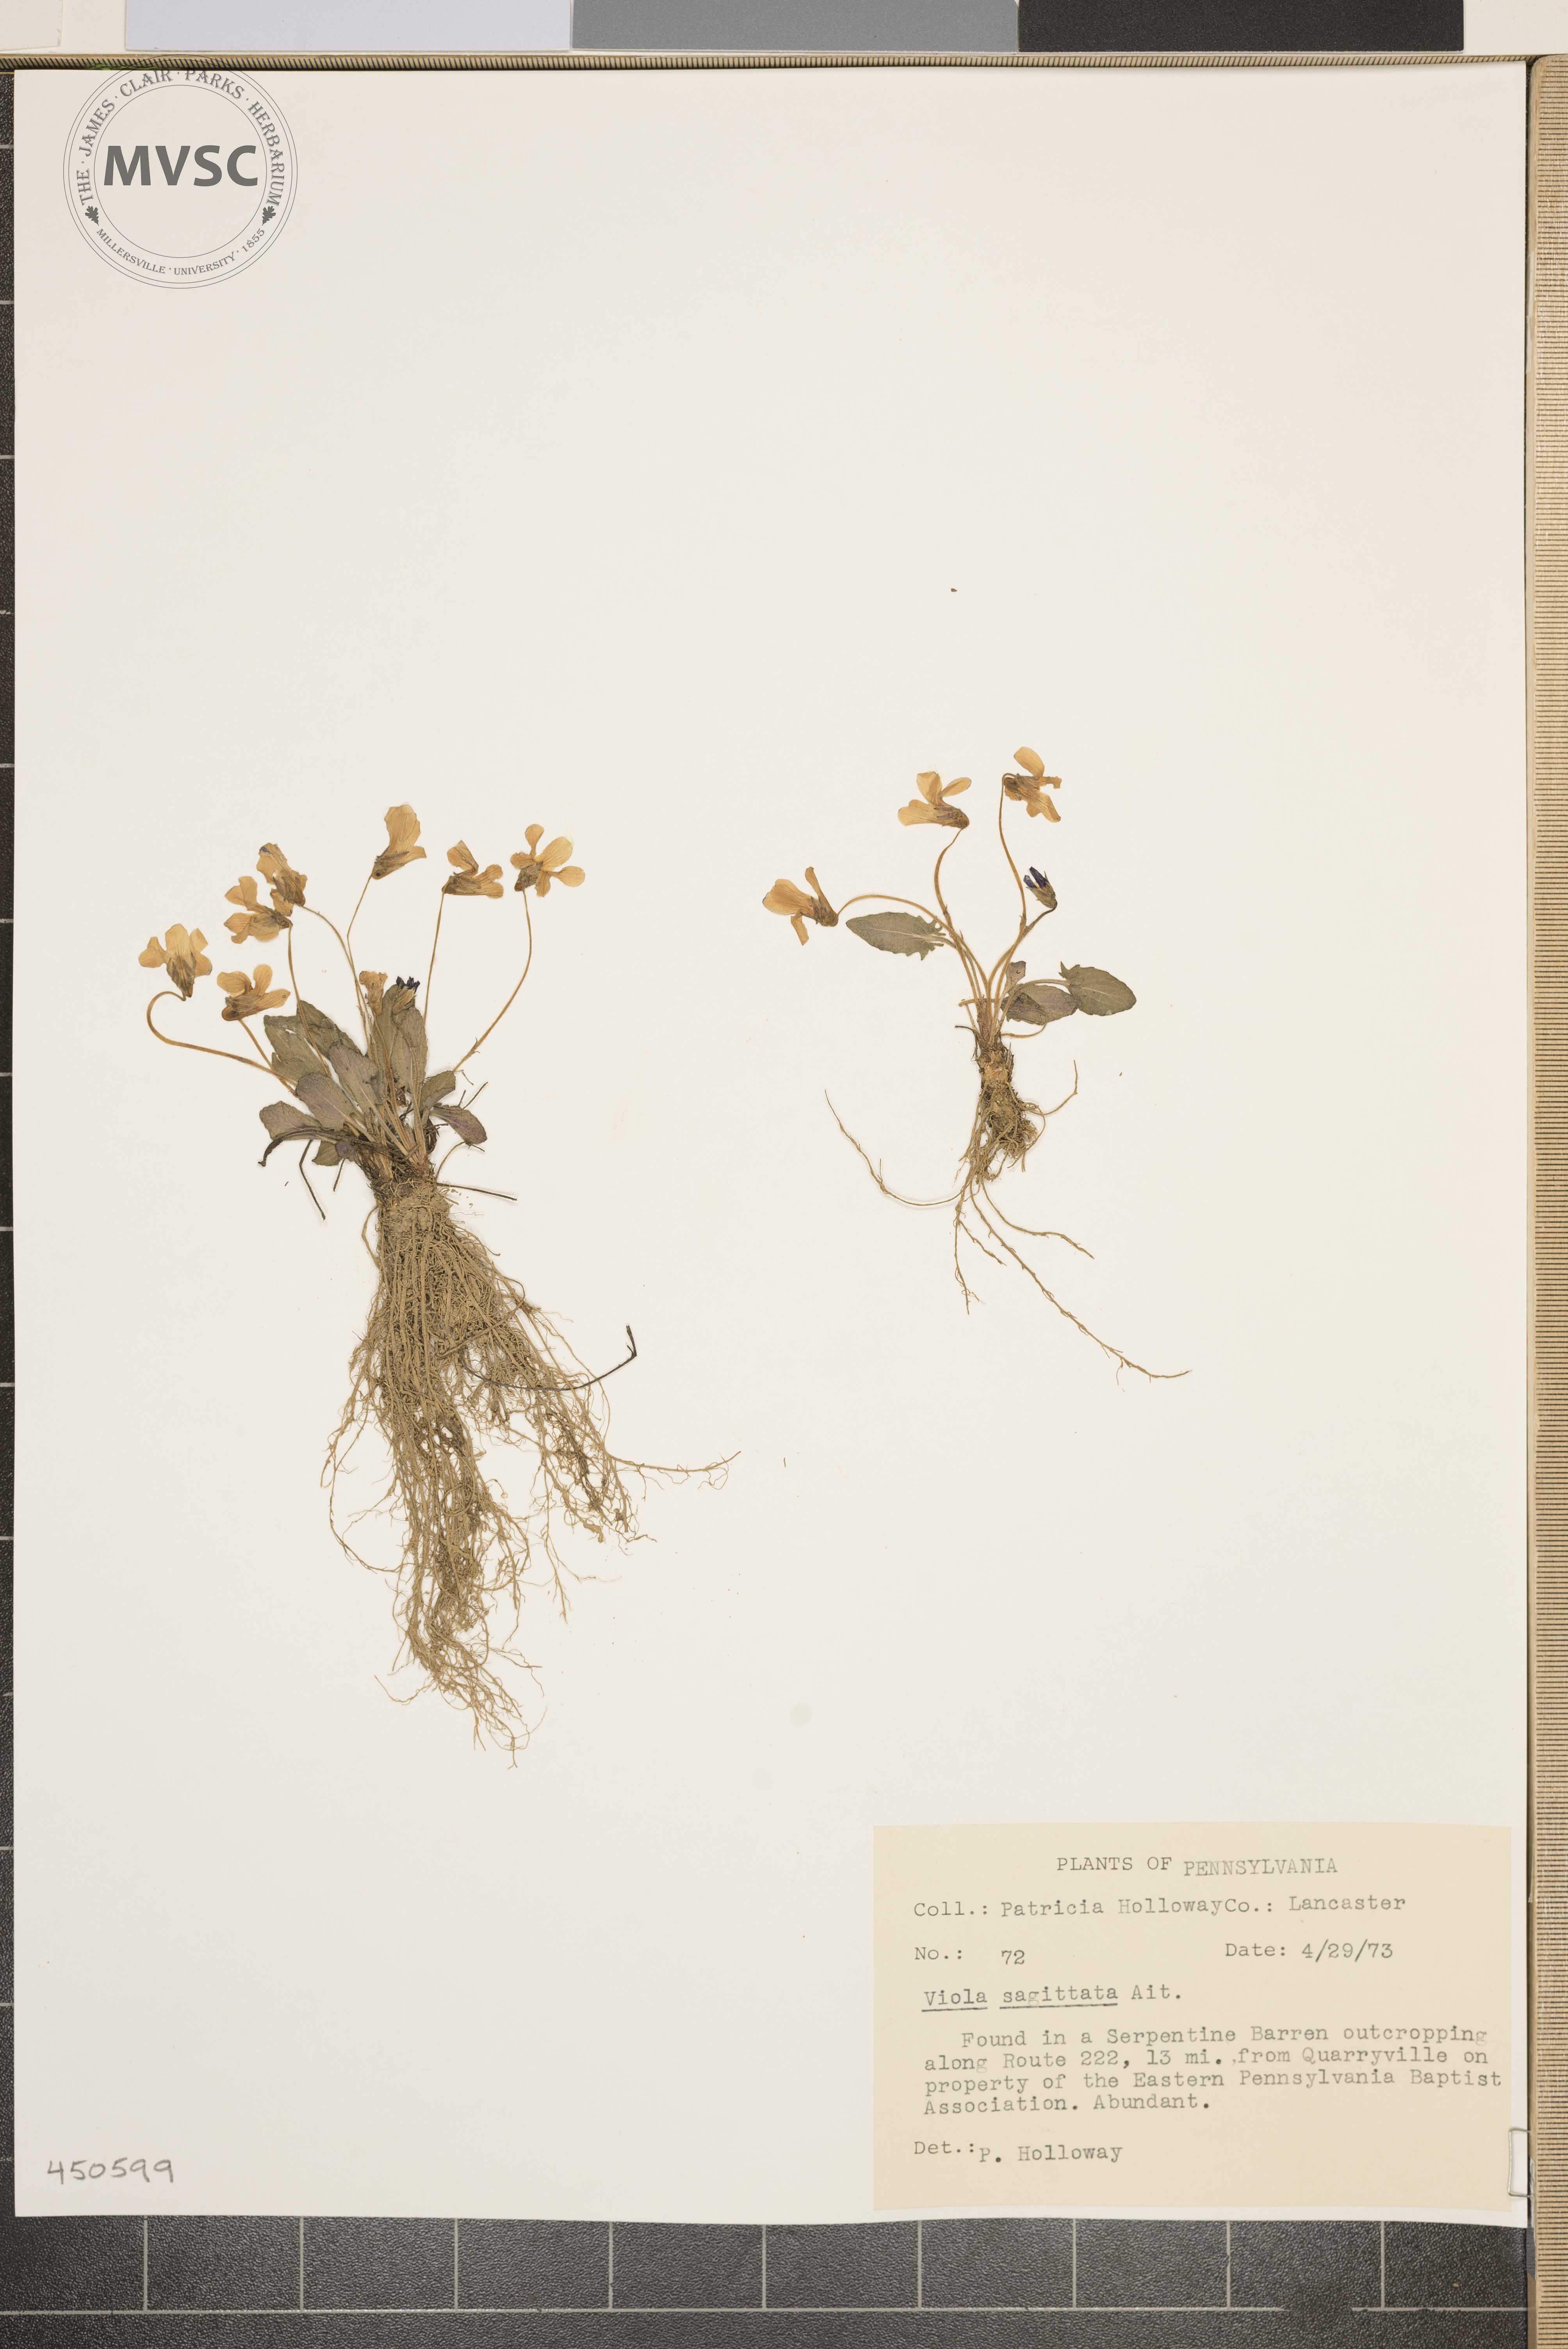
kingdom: Plantae
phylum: Tracheophyta
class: Magnoliopsida
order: Malpighiales
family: Violaceae
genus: Viola
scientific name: Viola sagittata
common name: Arrowhead violet
